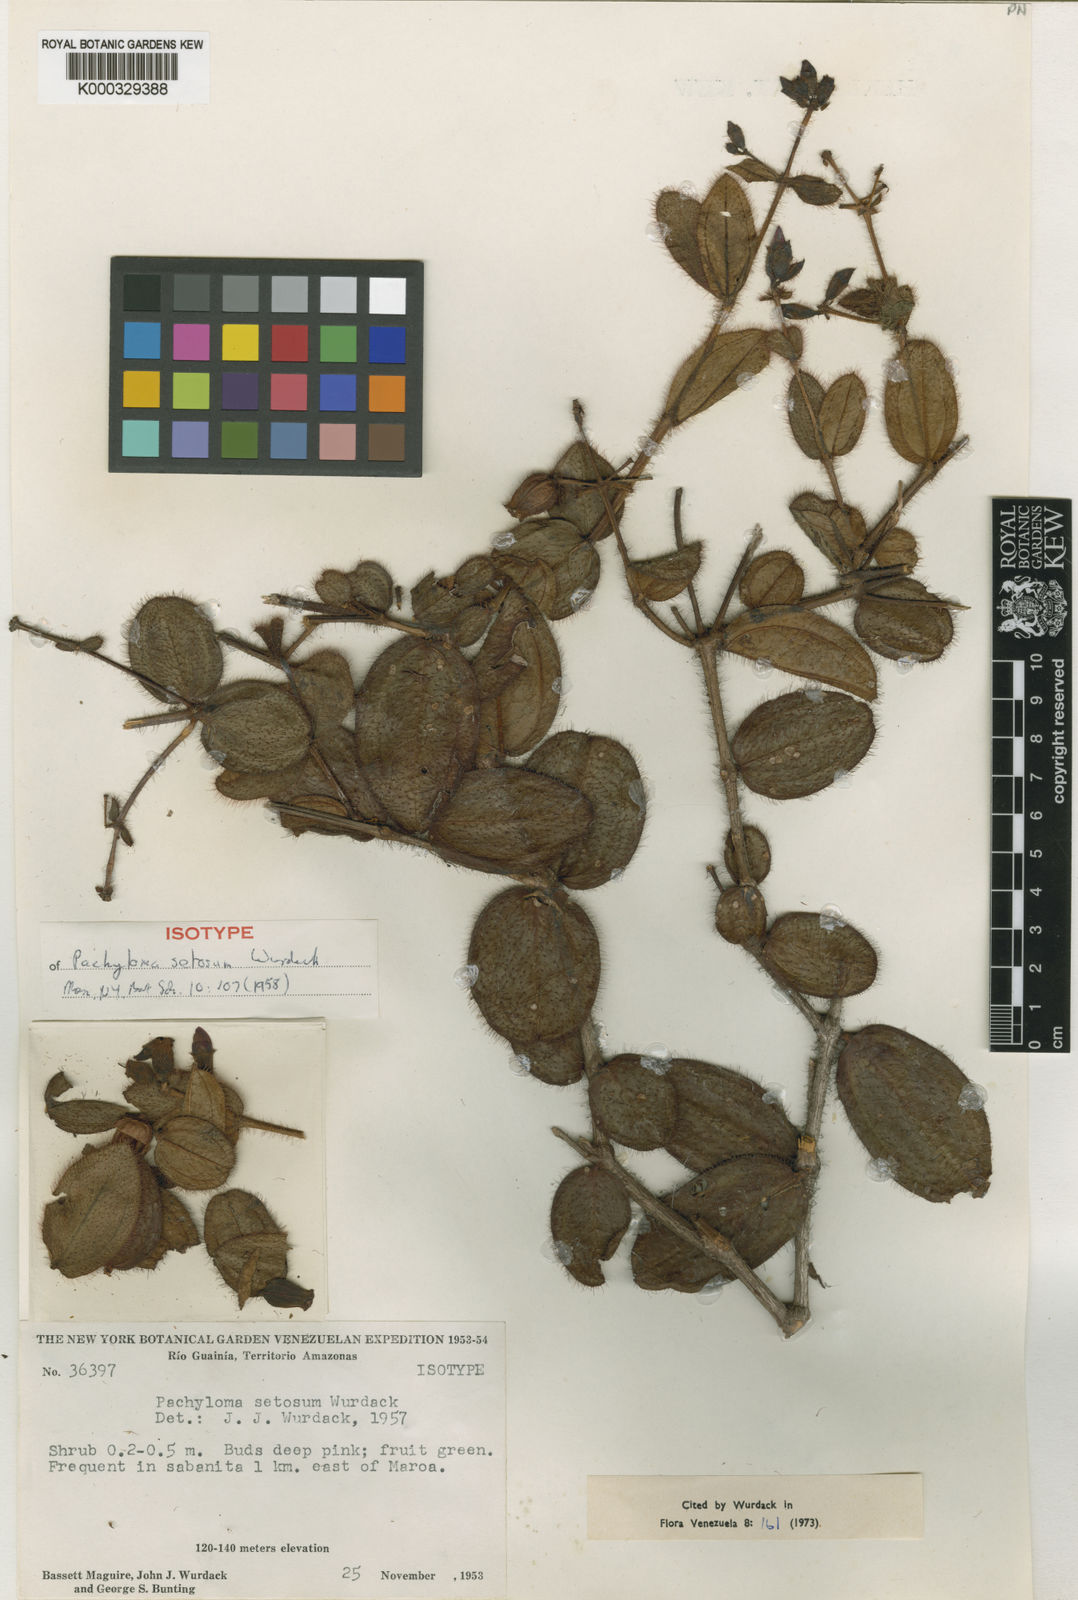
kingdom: Plantae
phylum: Tracheophyta
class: Magnoliopsida
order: Myrtales
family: Melastomataceae
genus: Pachyloma
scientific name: Pachyloma setosum
